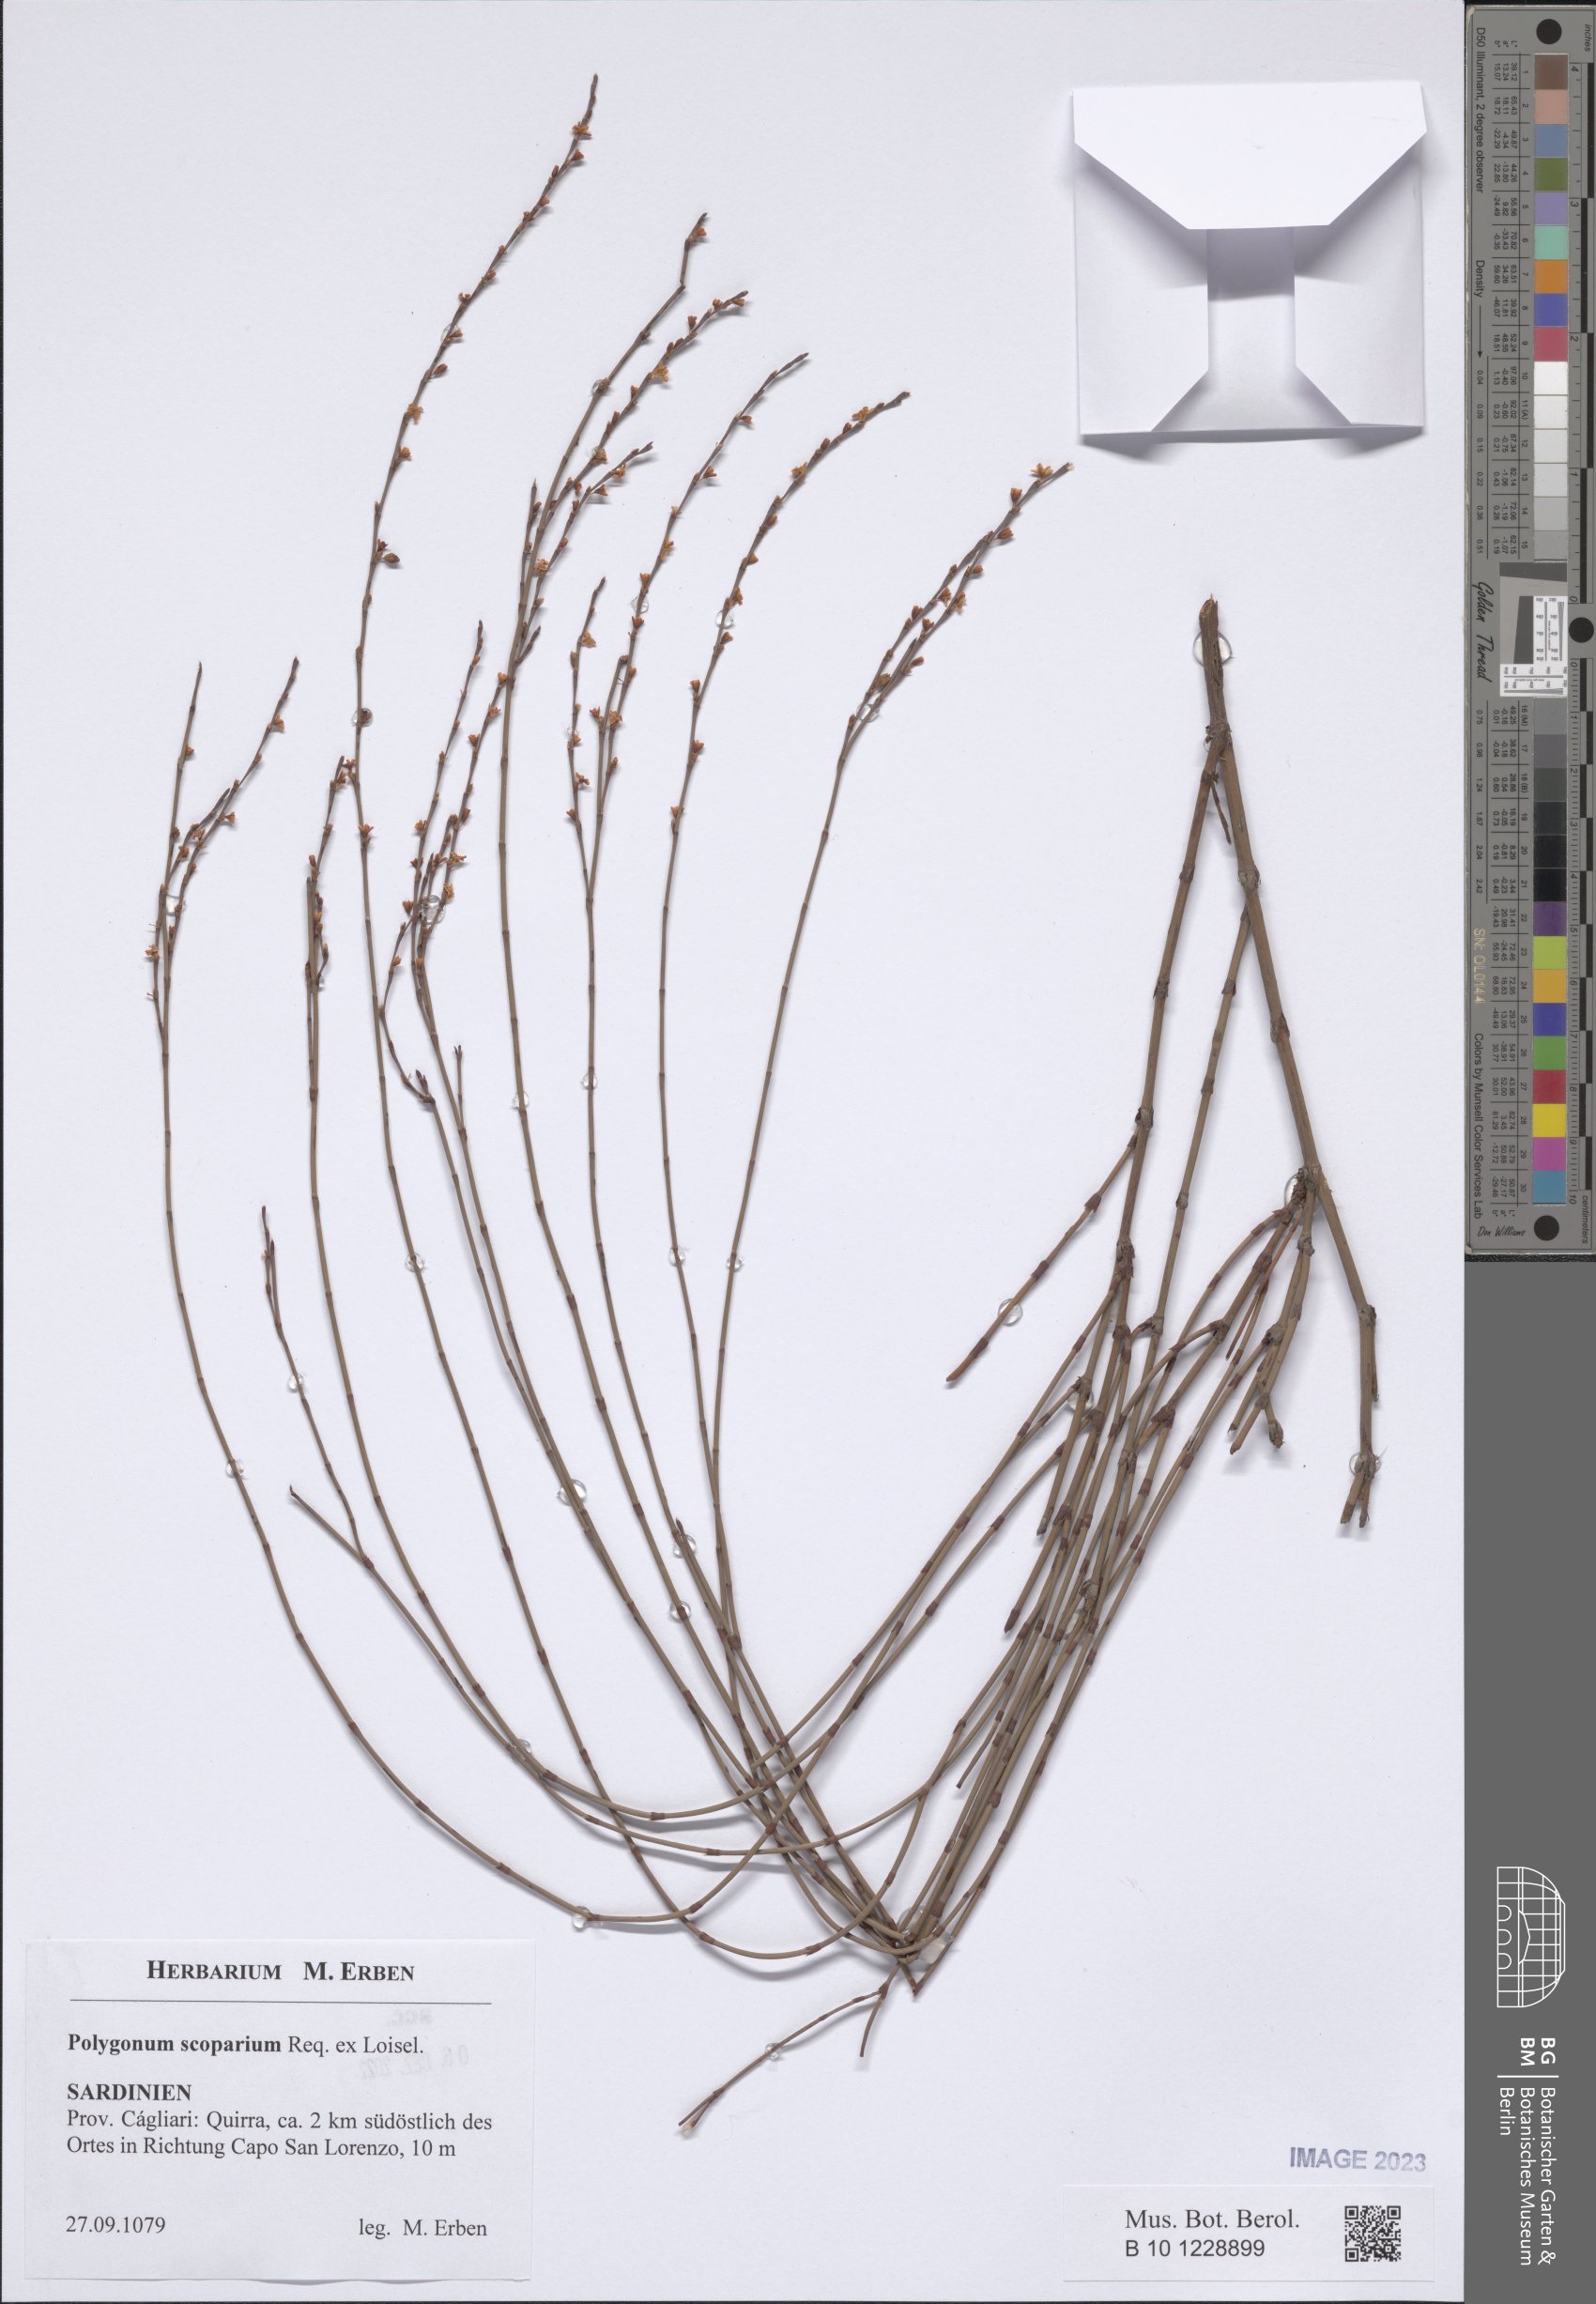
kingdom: Plantae
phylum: Tracheophyta
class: Magnoliopsida
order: Caryophyllales
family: Polygonaceae
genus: Polygonum
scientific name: Polygonum scoparium
